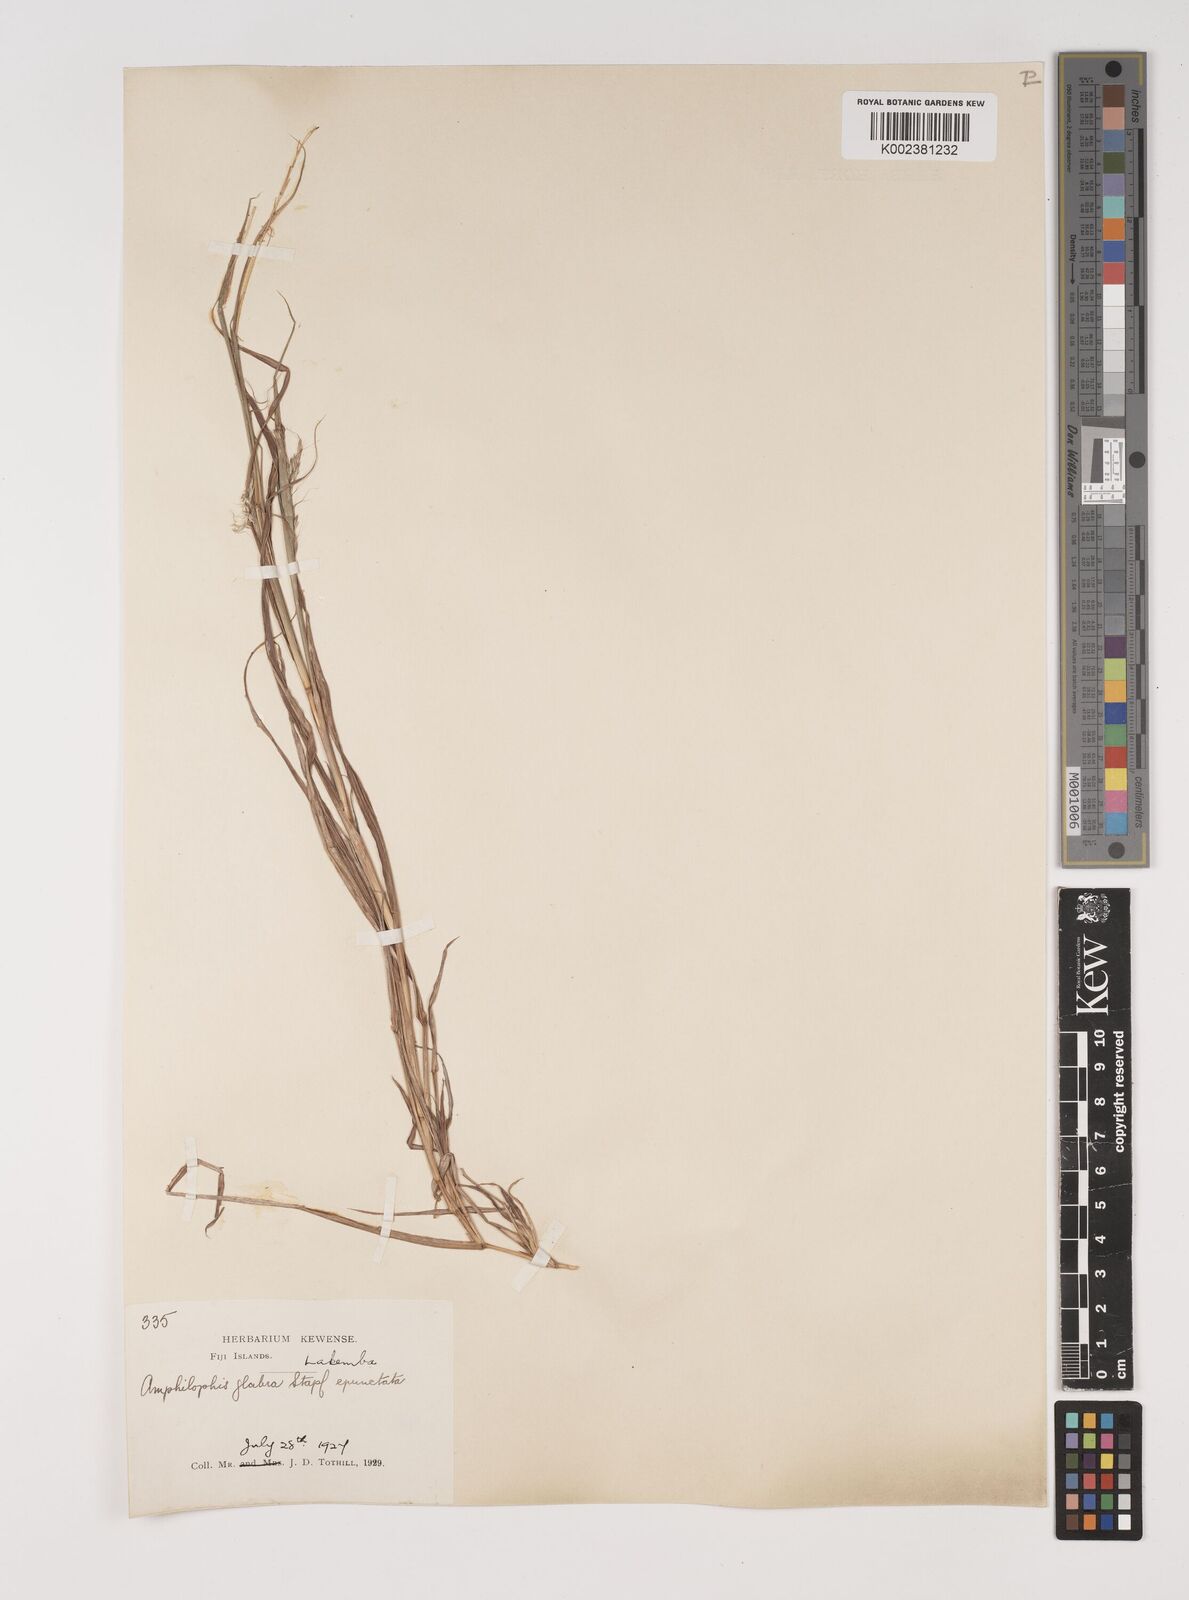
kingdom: Plantae
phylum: Tracheophyta
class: Liliopsida
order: Poales
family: Poaceae
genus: Bothriochloa
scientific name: Bothriochloa bladhii
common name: Caucasian bluestem
